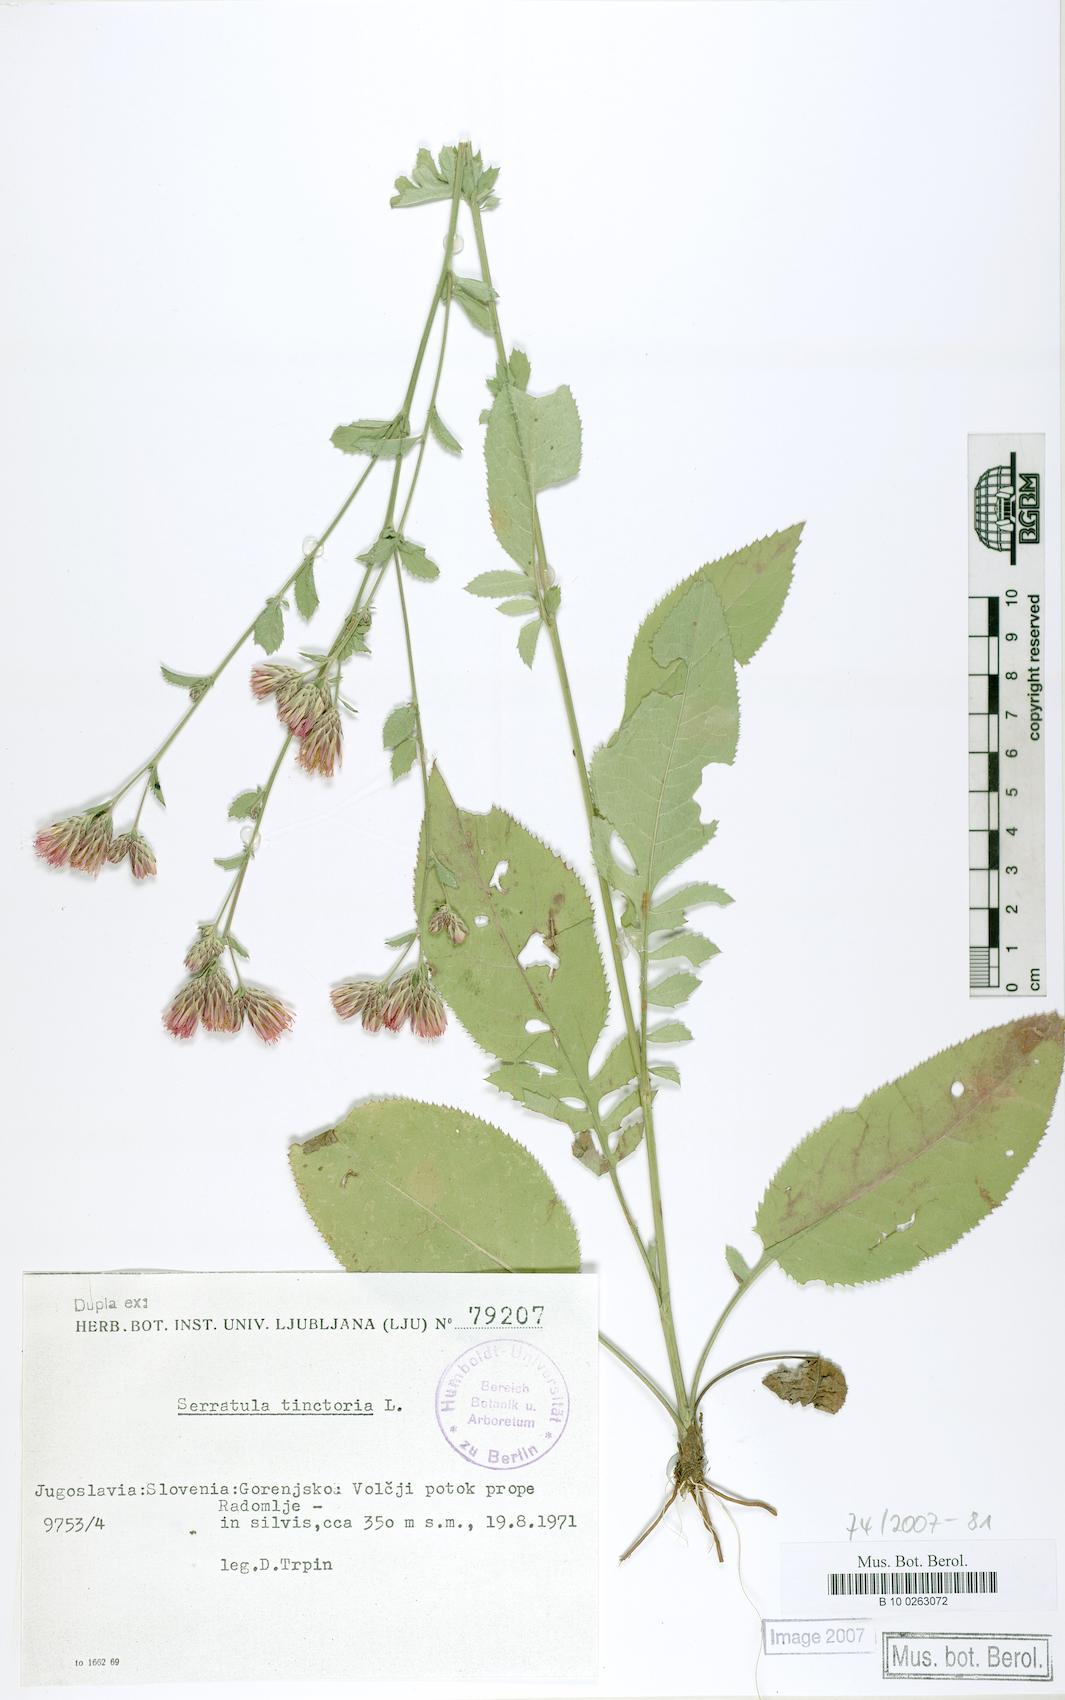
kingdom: Plantae
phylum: Tracheophyta
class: Magnoliopsida
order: Asterales
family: Asteraceae
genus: Serratula
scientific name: Serratula tinctoria
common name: Saw-wort
